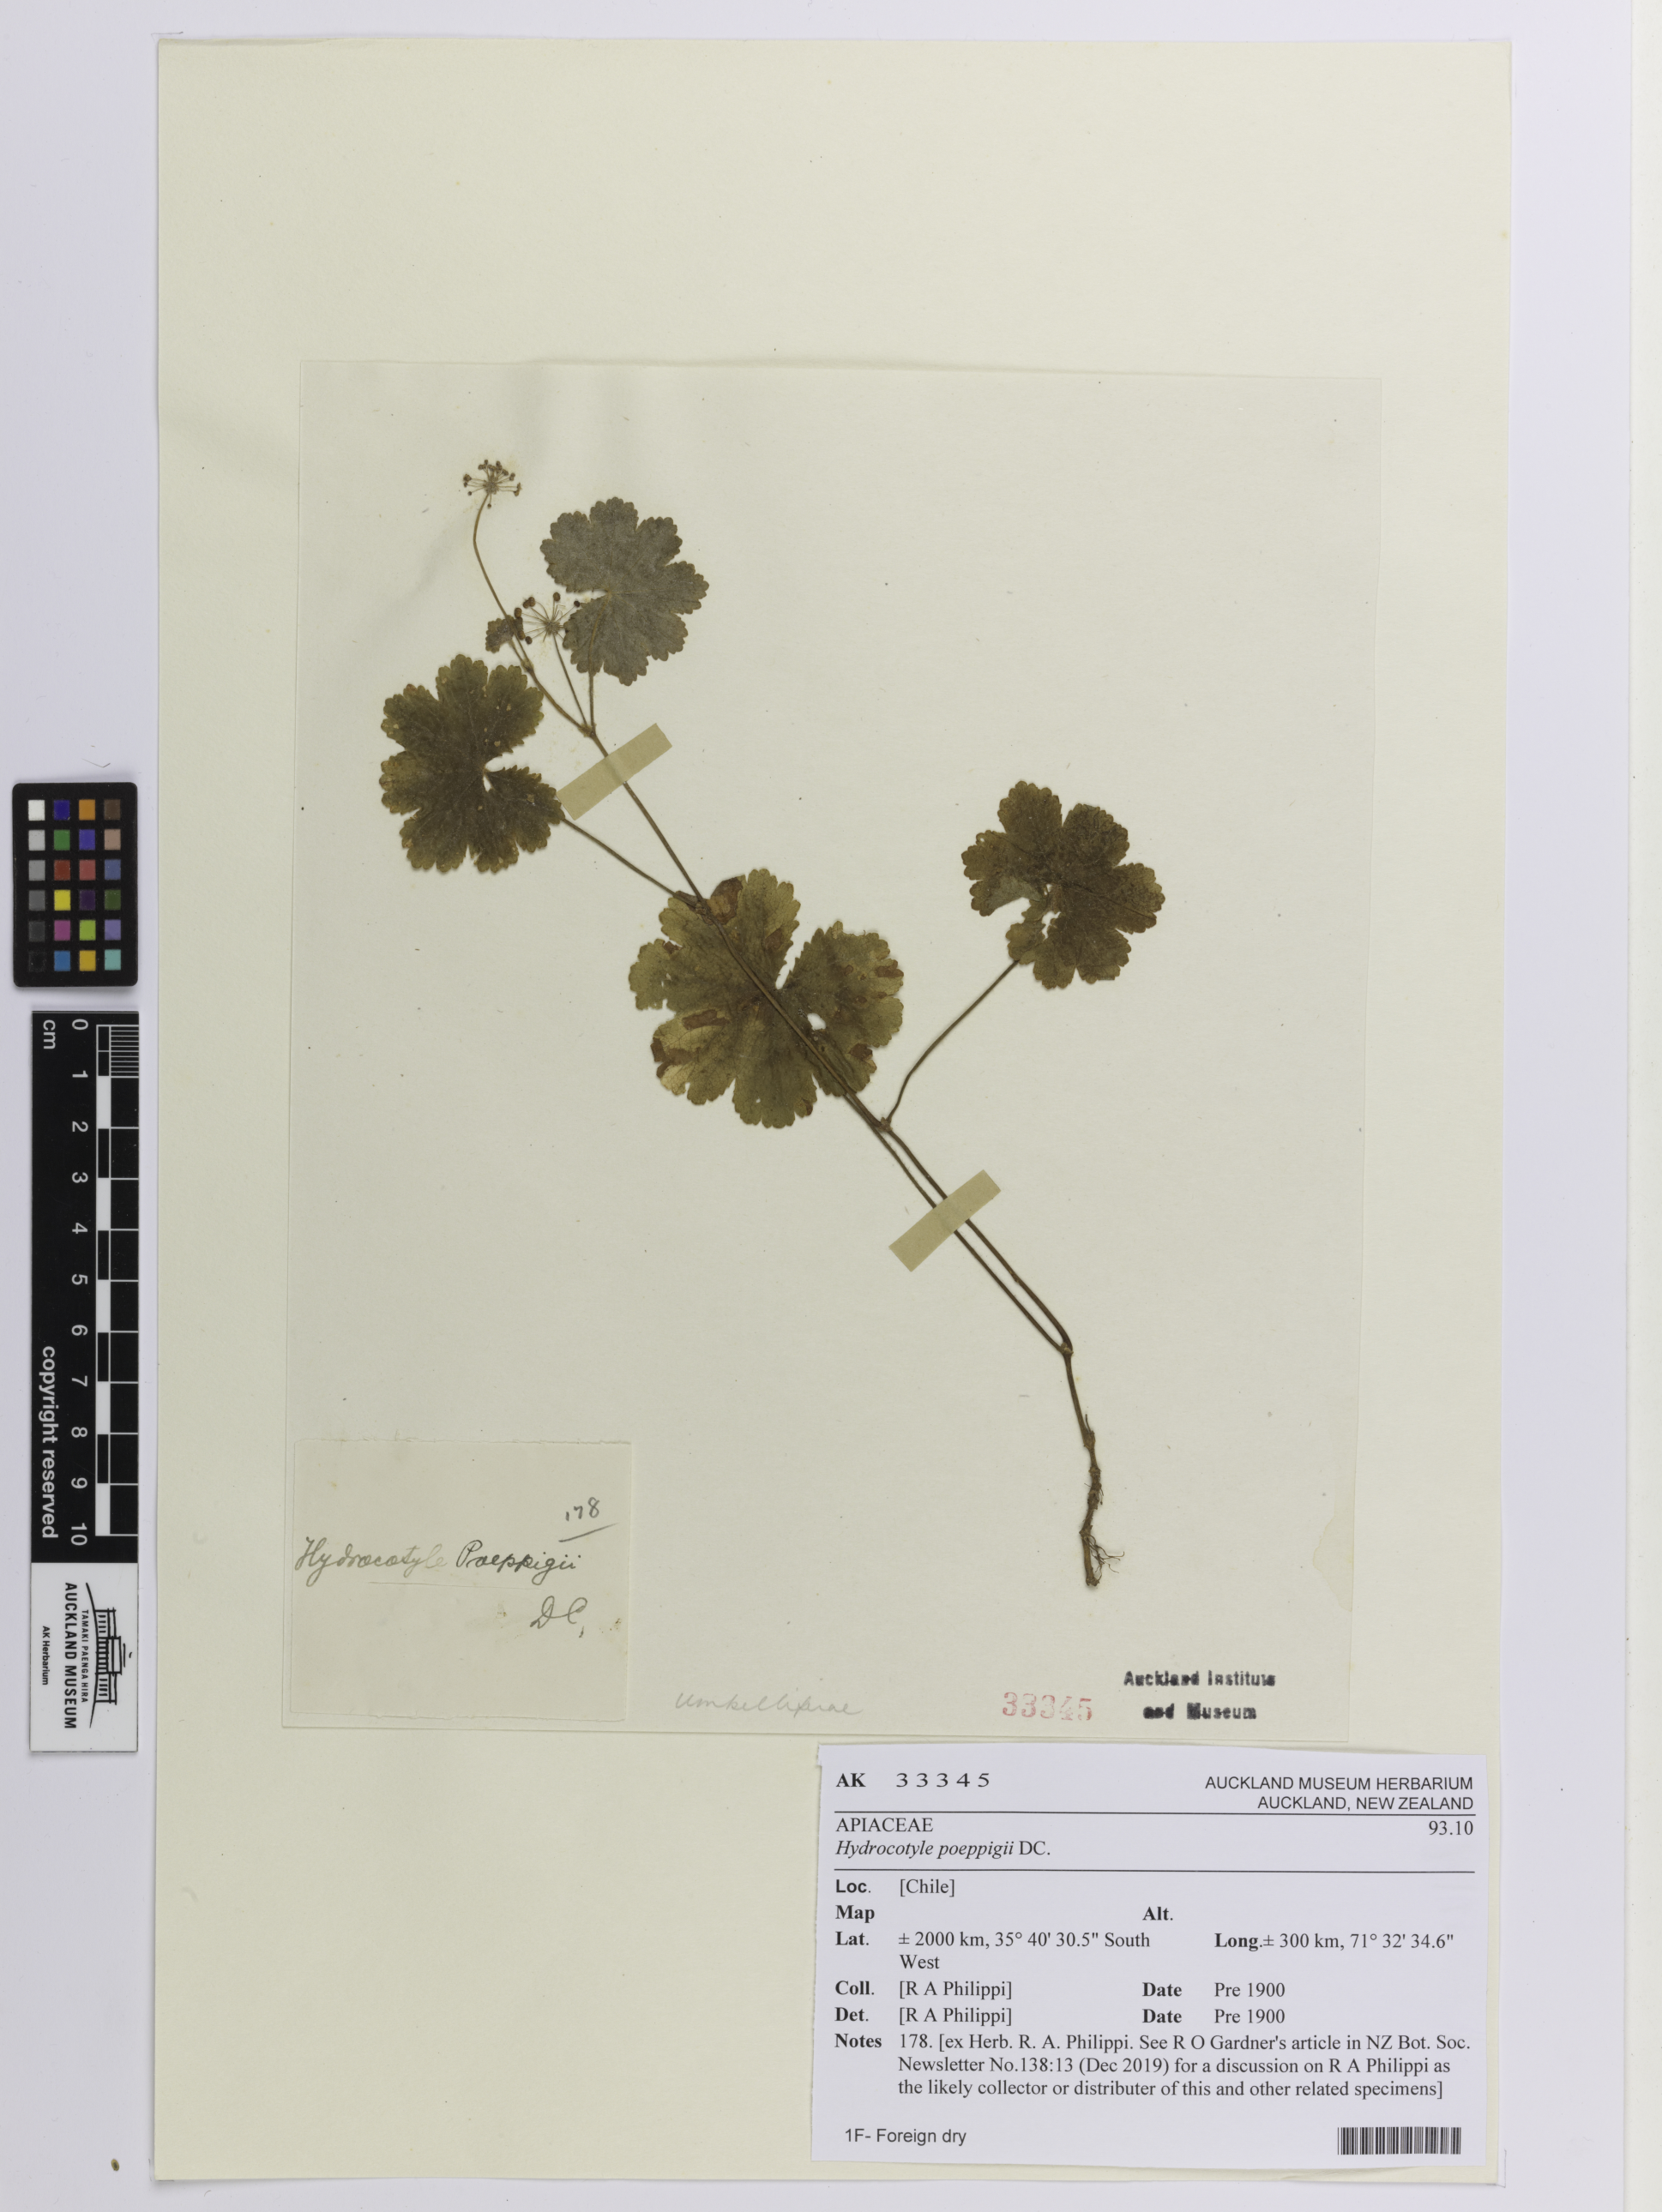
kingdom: Plantae
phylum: Tracheophyta
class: Magnoliopsida
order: Apiales
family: Araliaceae
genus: Hydrocotyle
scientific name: Hydrocotyle poeppigii
